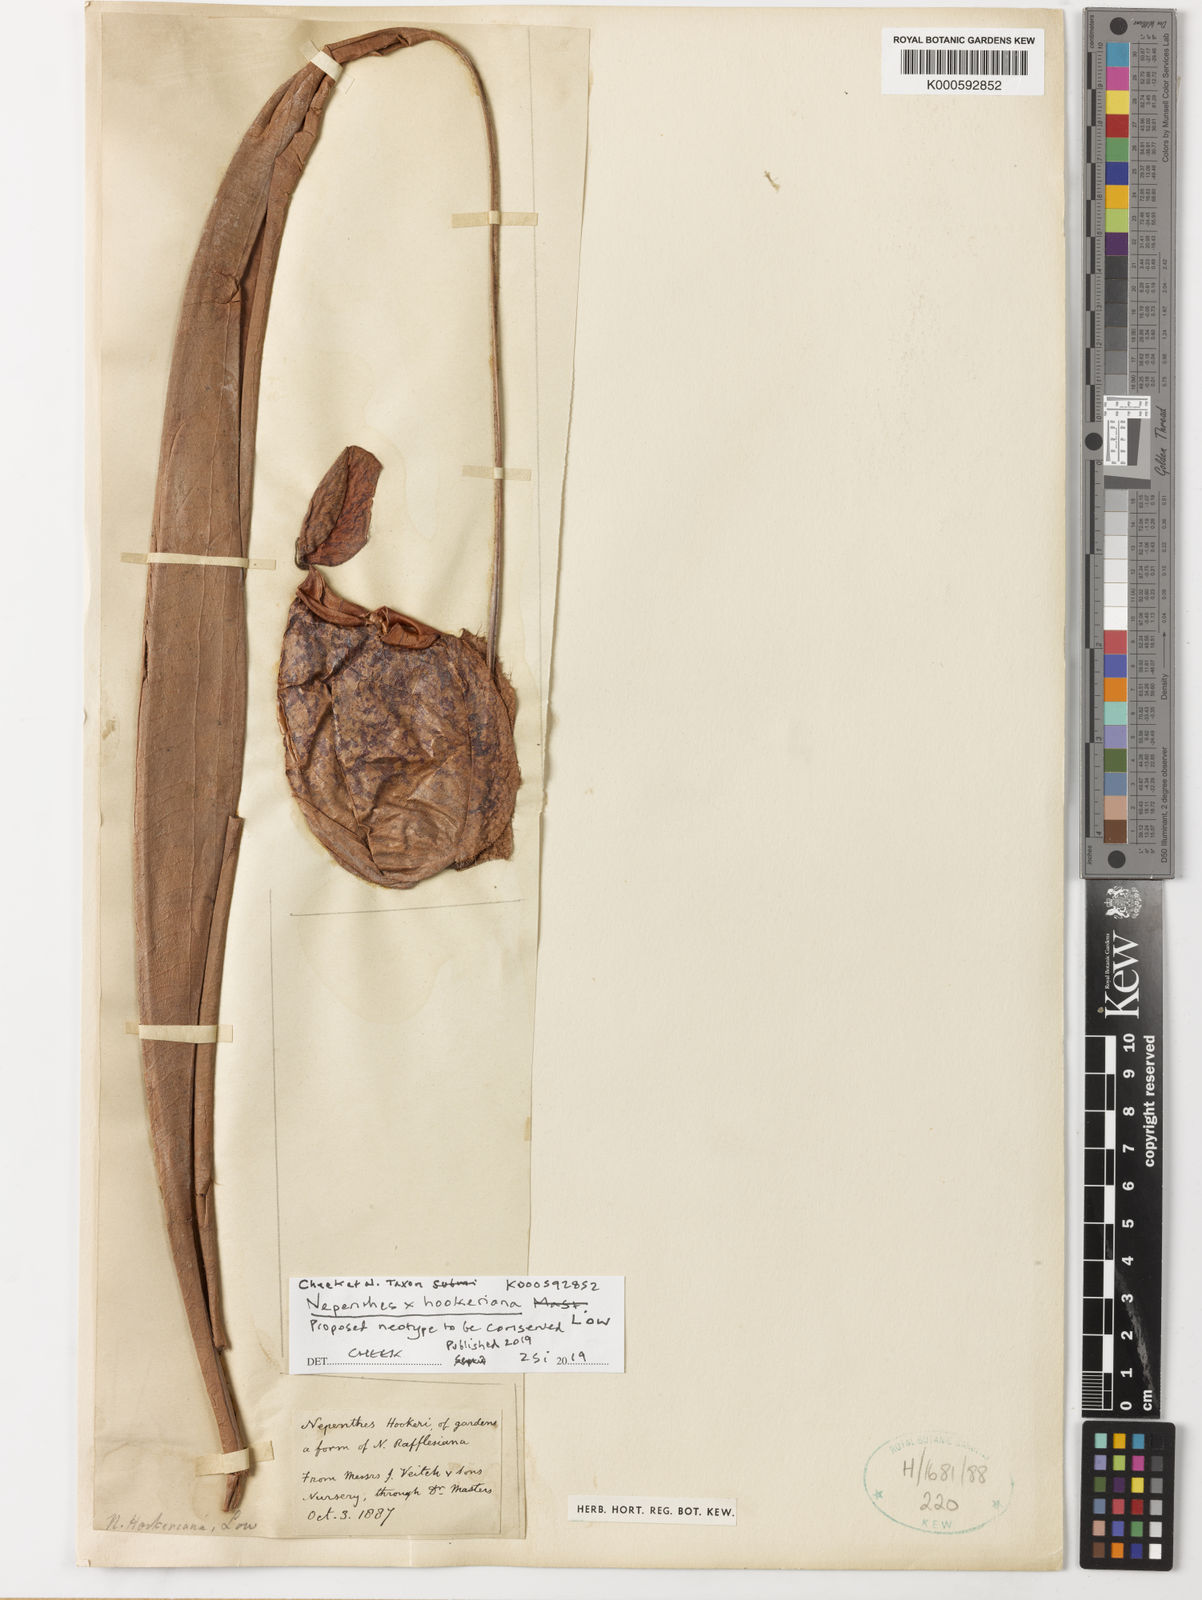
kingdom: Plantae
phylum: Tracheophyta
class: Magnoliopsida
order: Caryophyllales
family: Nepenthaceae
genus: Nepenthes
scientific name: Nepenthes hookeriana
